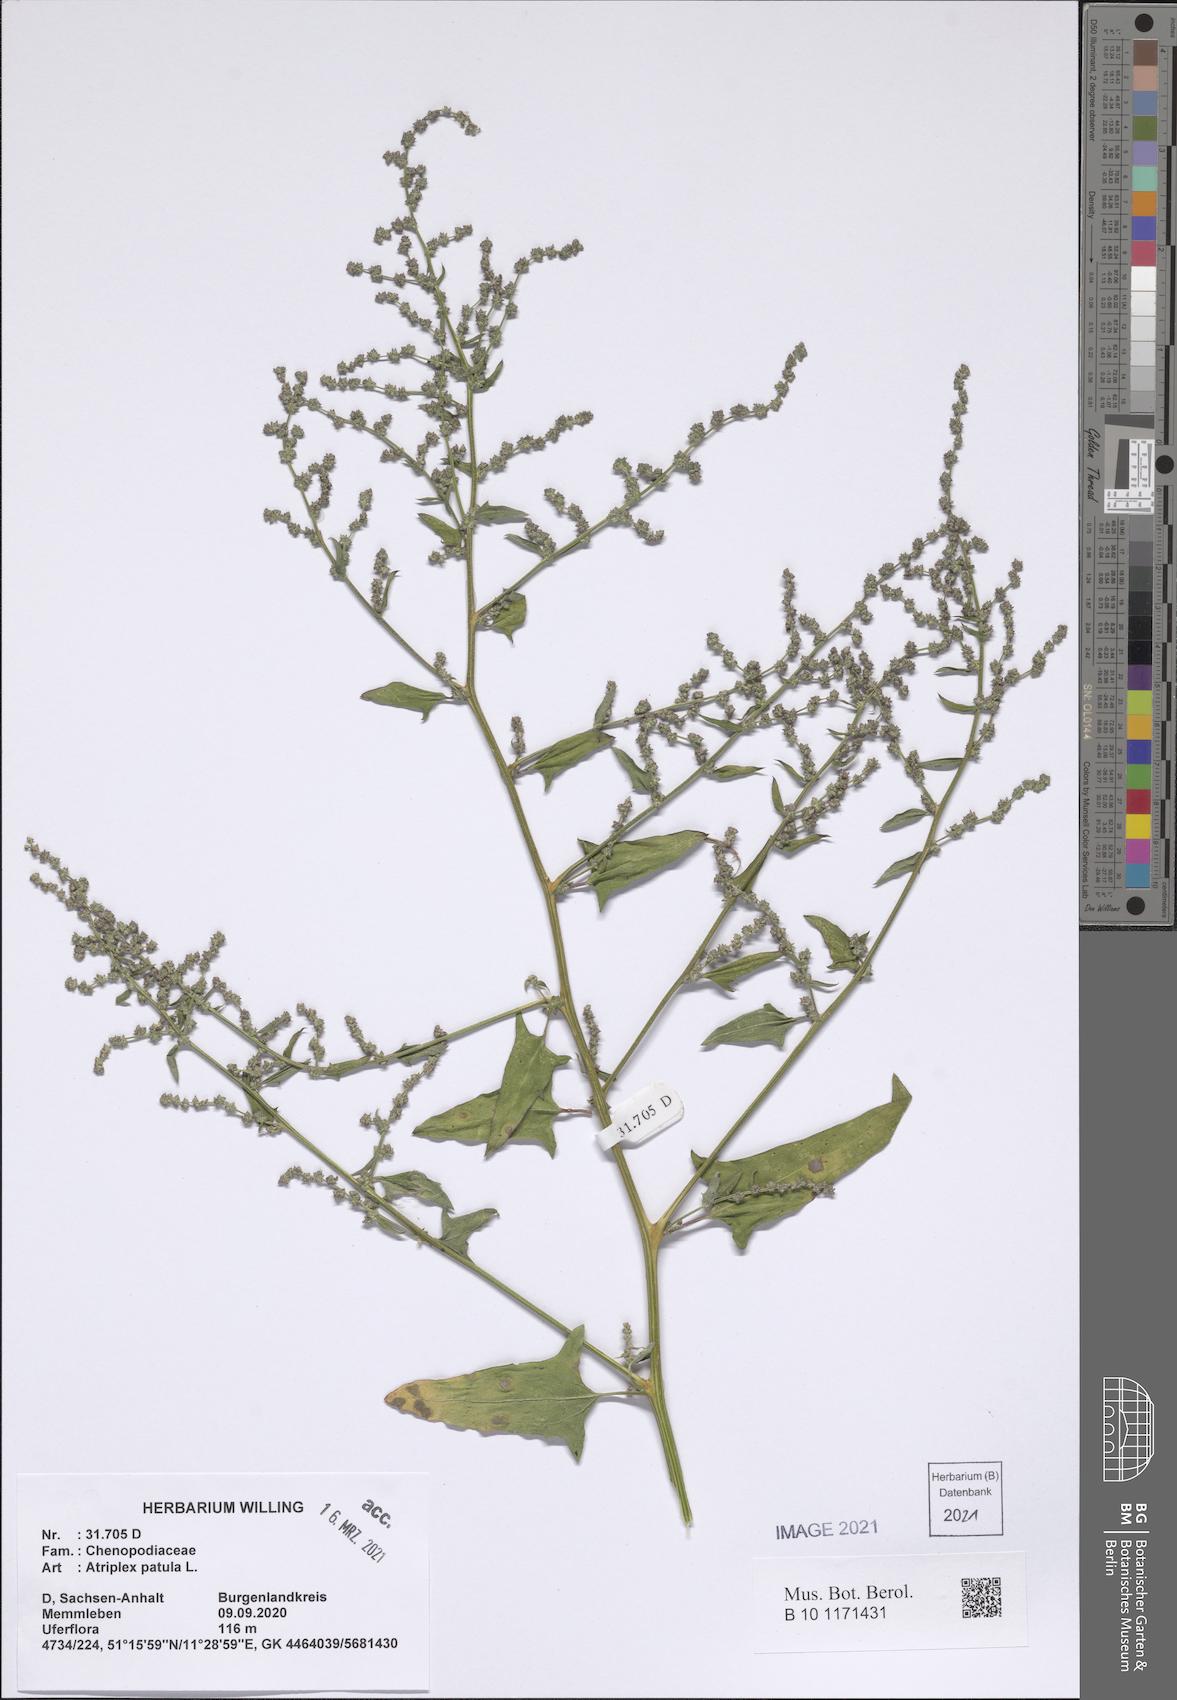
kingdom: Plantae
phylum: Tracheophyta
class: Magnoliopsida
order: Caryophyllales
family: Amaranthaceae
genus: Atriplex
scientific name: Atriplex patula
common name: Common orache
